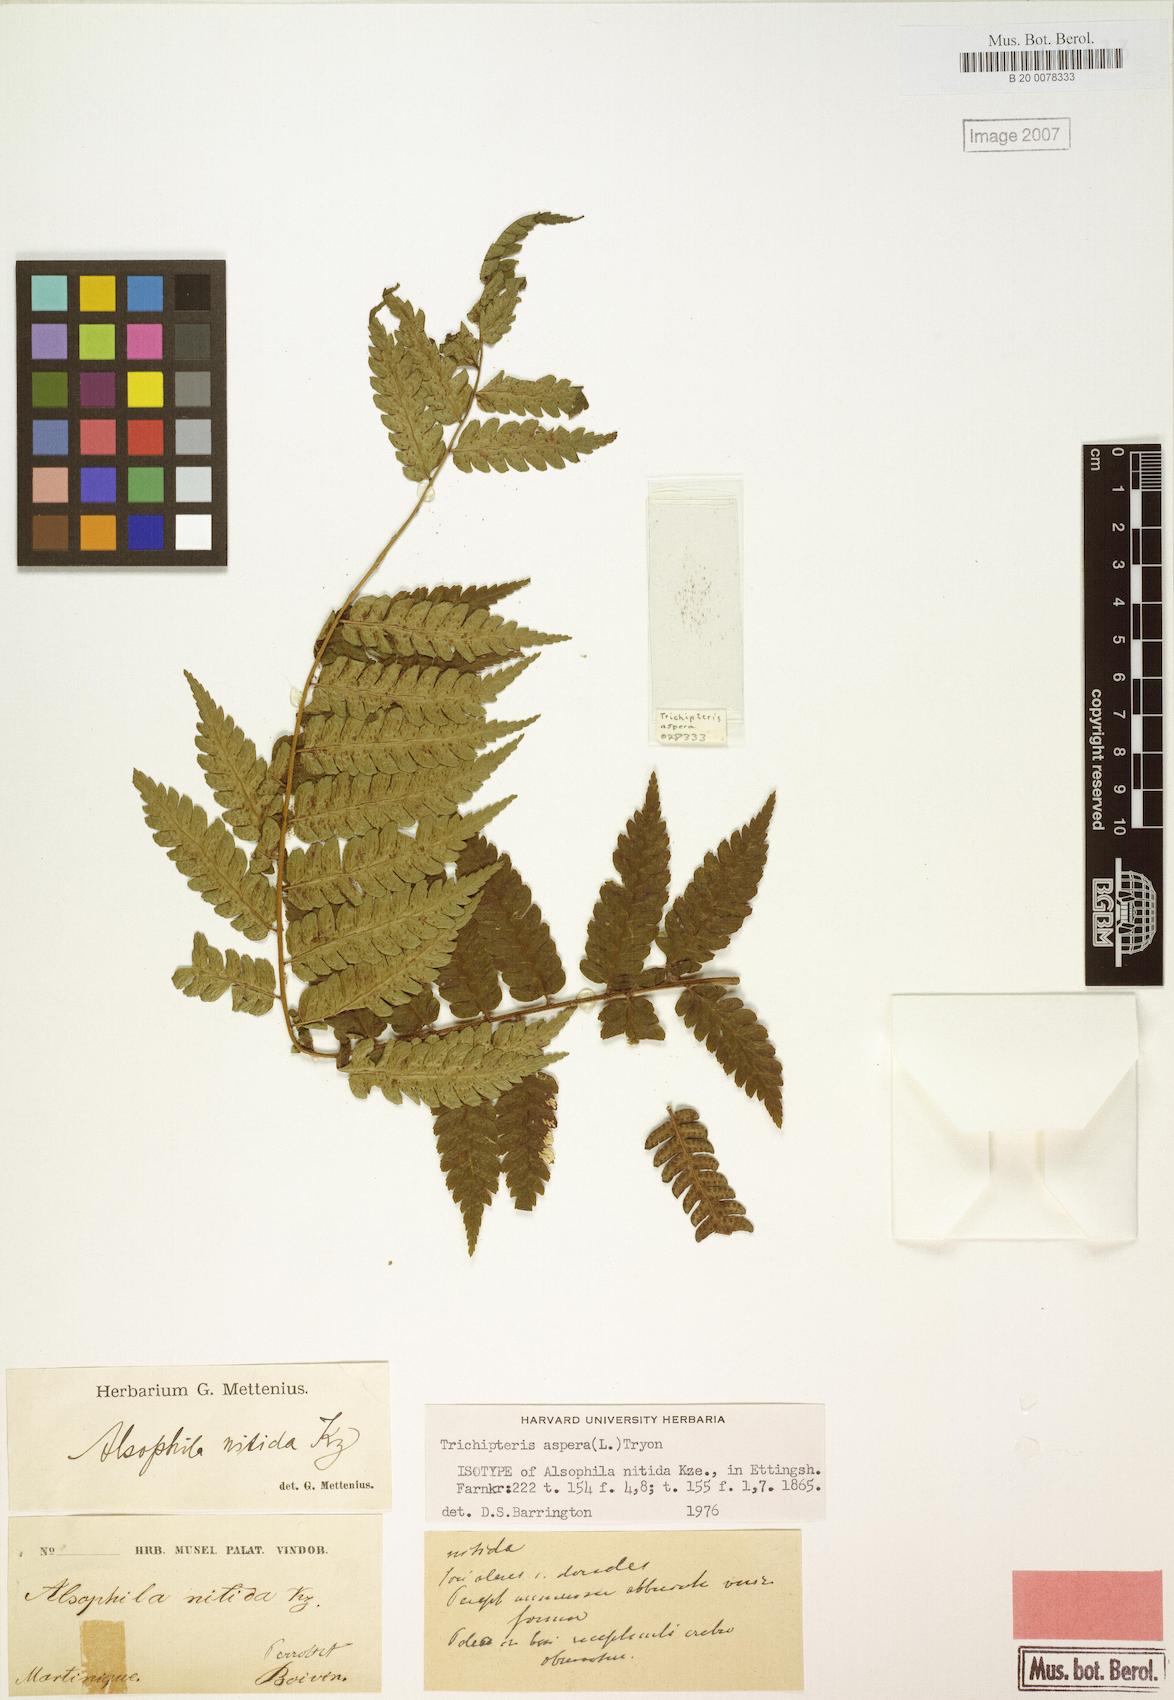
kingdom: Plantae
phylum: Tracheophyta
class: Polypodiopsida
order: Cyatheales
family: Cyatheaceae
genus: Cyathea
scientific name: Cyathea aspera
